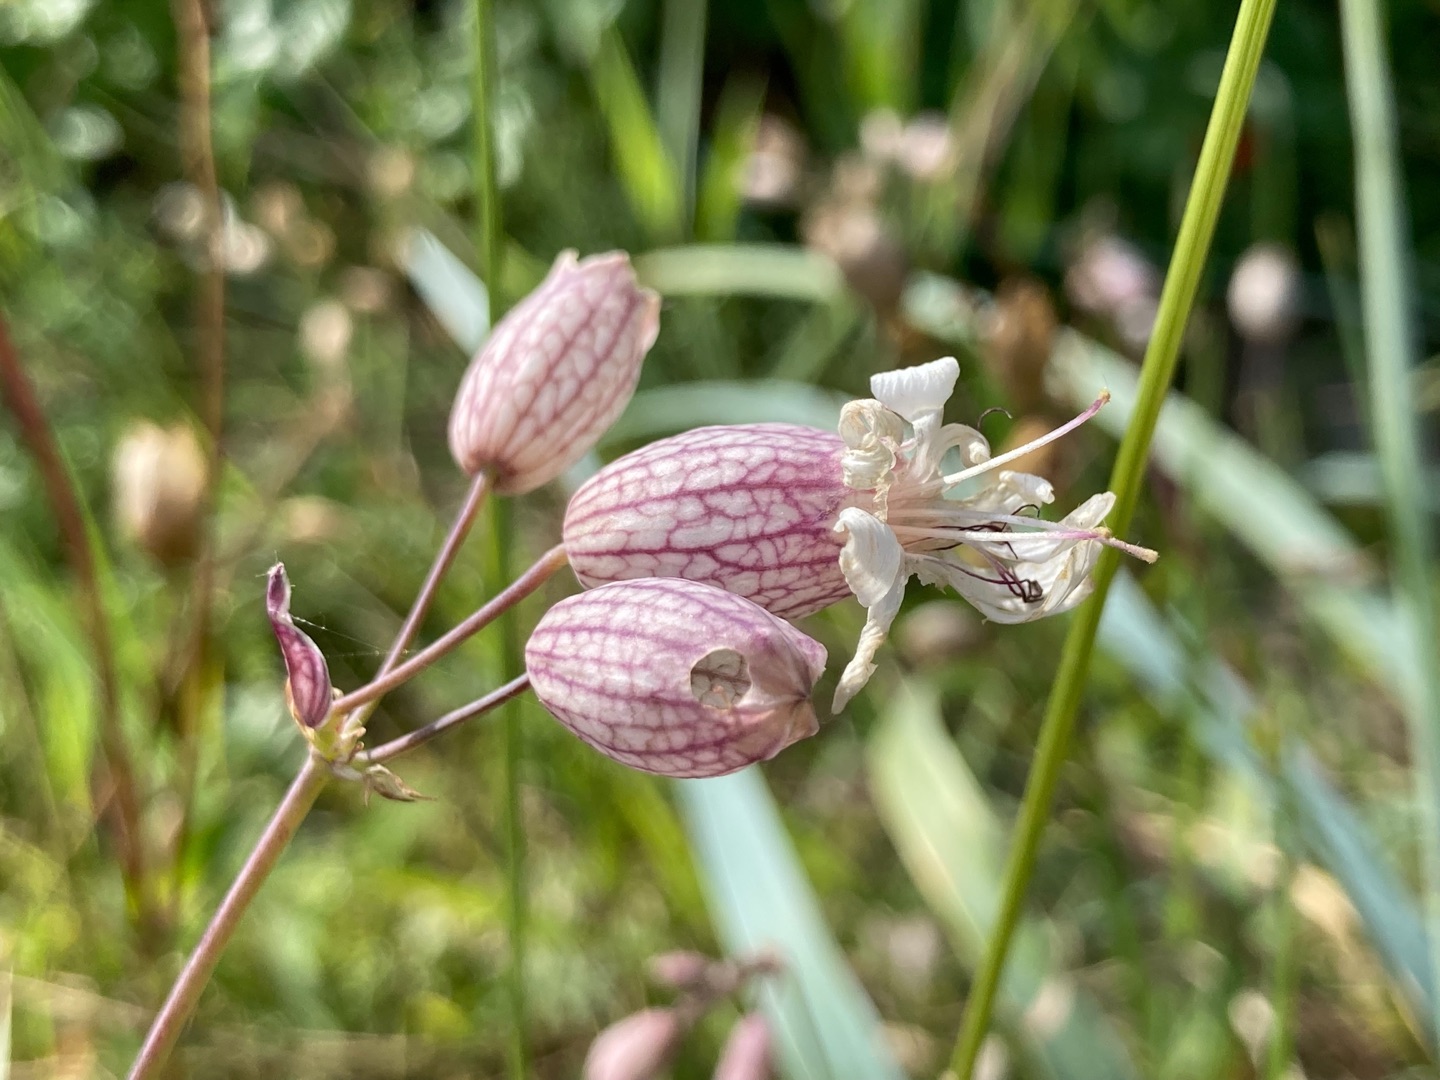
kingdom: Plantae
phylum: Tracheophyta
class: Magnoliopsida
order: Caryophyllales
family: Caryophyllaceae
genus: Silene
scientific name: Silene vulgaris
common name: Blæresmælde
